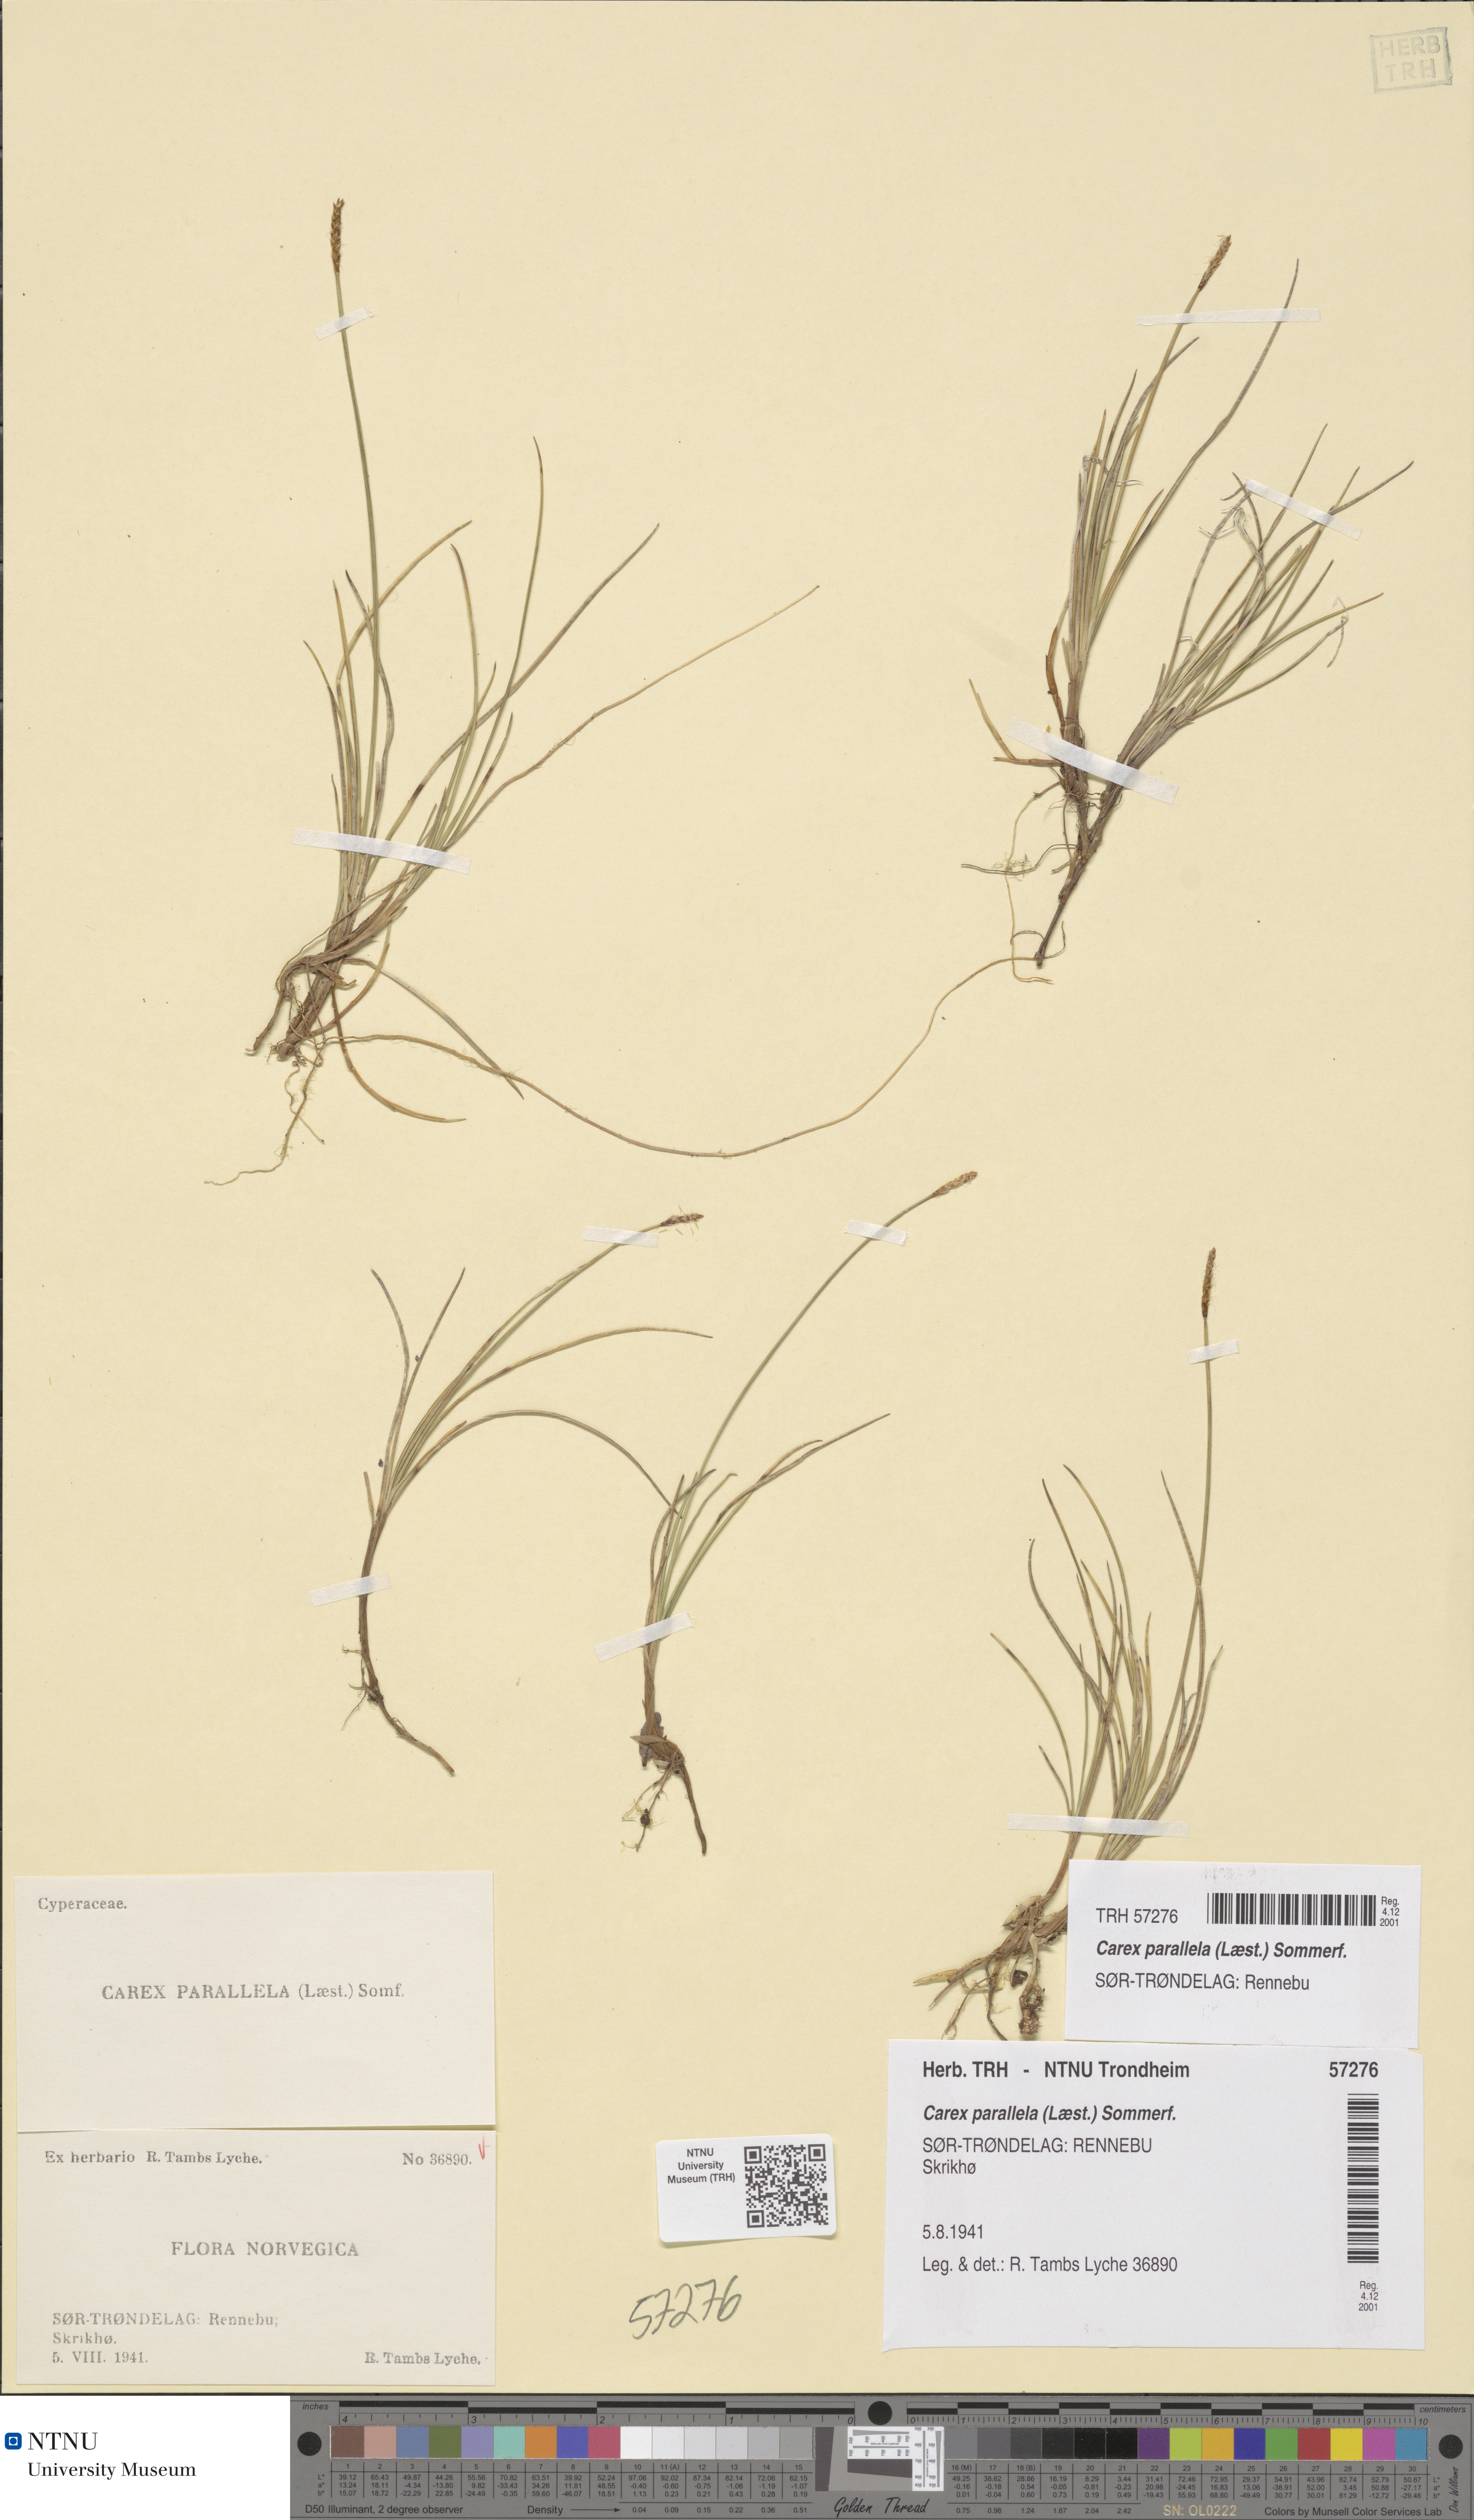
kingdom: Plantae
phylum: Tracheophyta
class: Liliopsida
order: Poales
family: Cyperaceae
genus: Carex
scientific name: Carex parallela
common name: Parallel sedge
